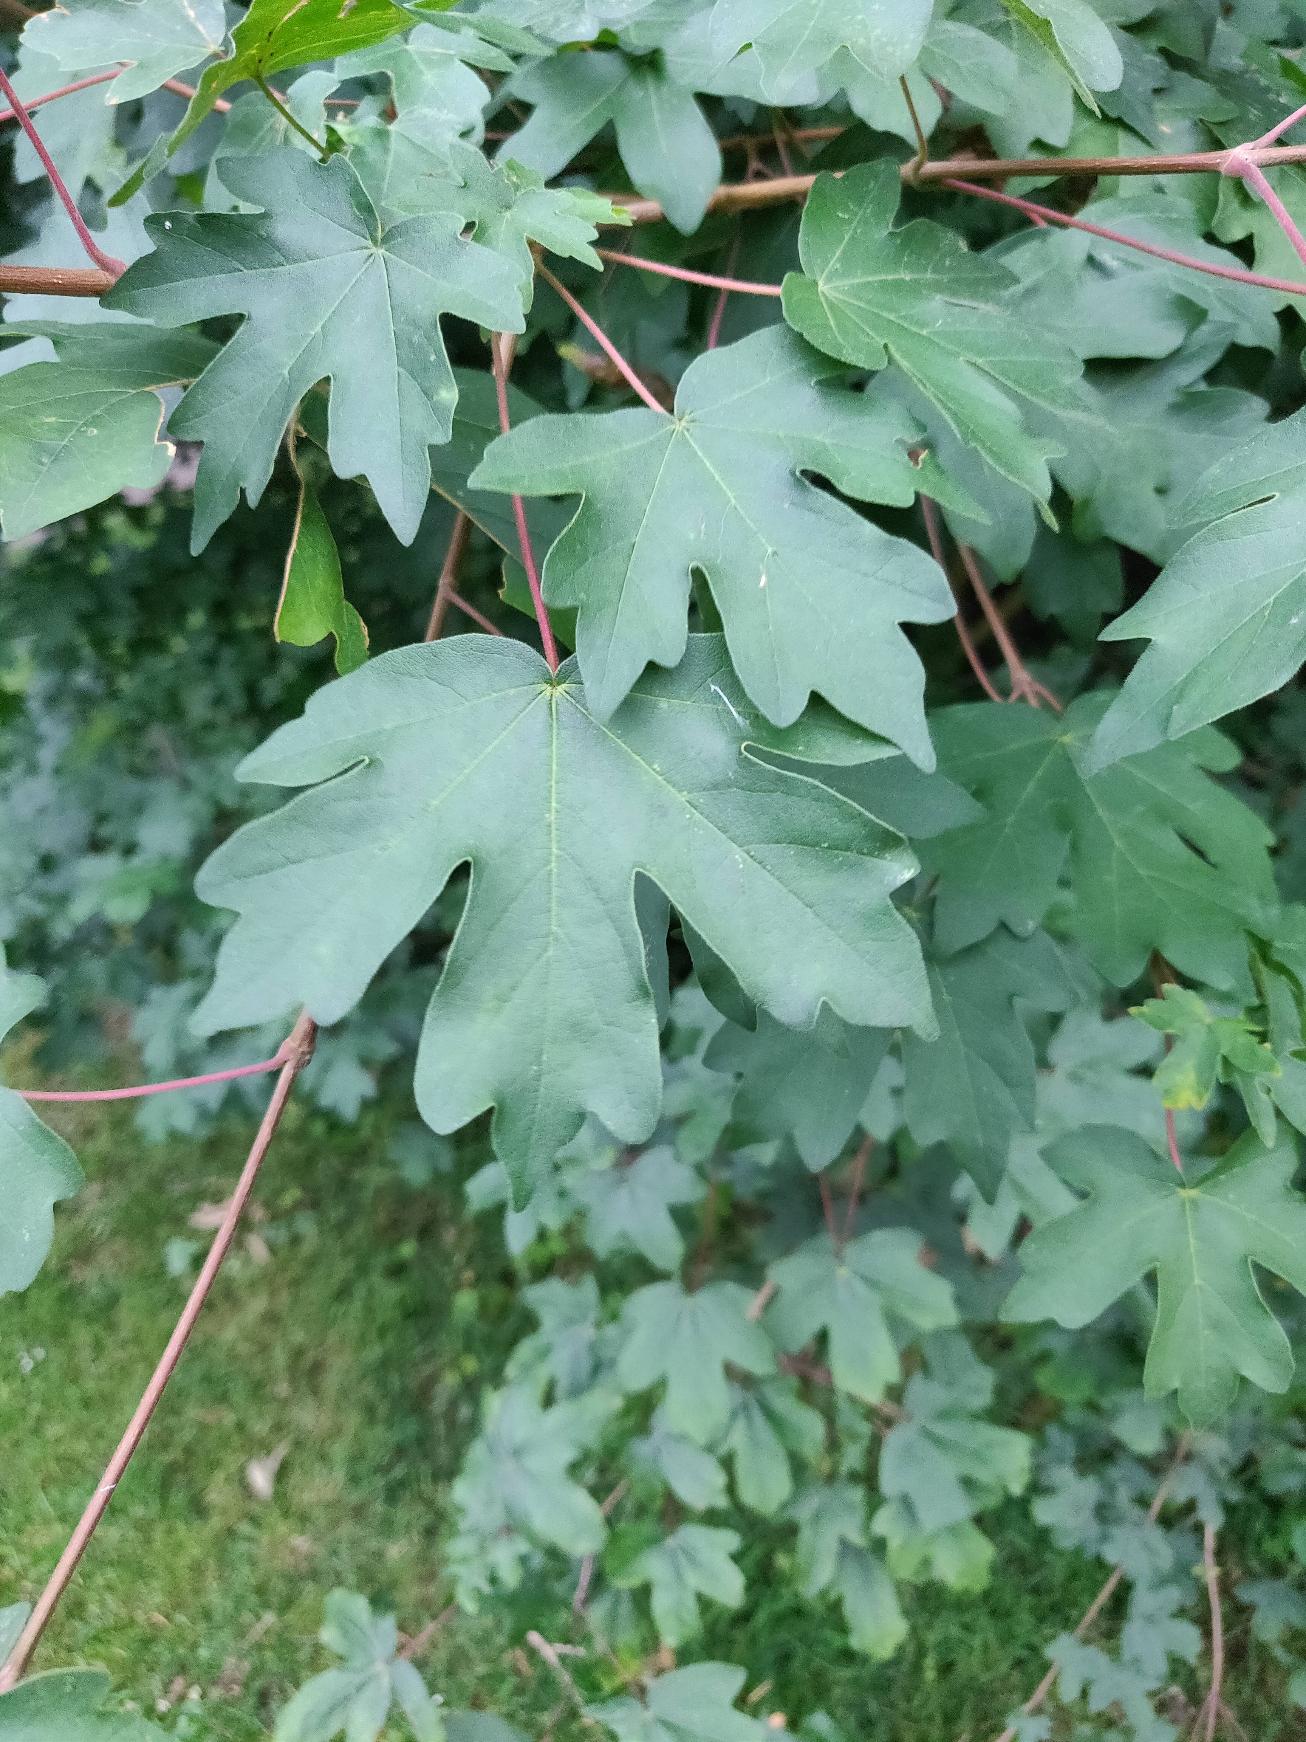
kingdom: Plantae
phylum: Tracheophyta
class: Magnoliopsida
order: Sapindales
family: Sapindaceae
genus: Acer
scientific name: Acer campestre
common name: Navr
